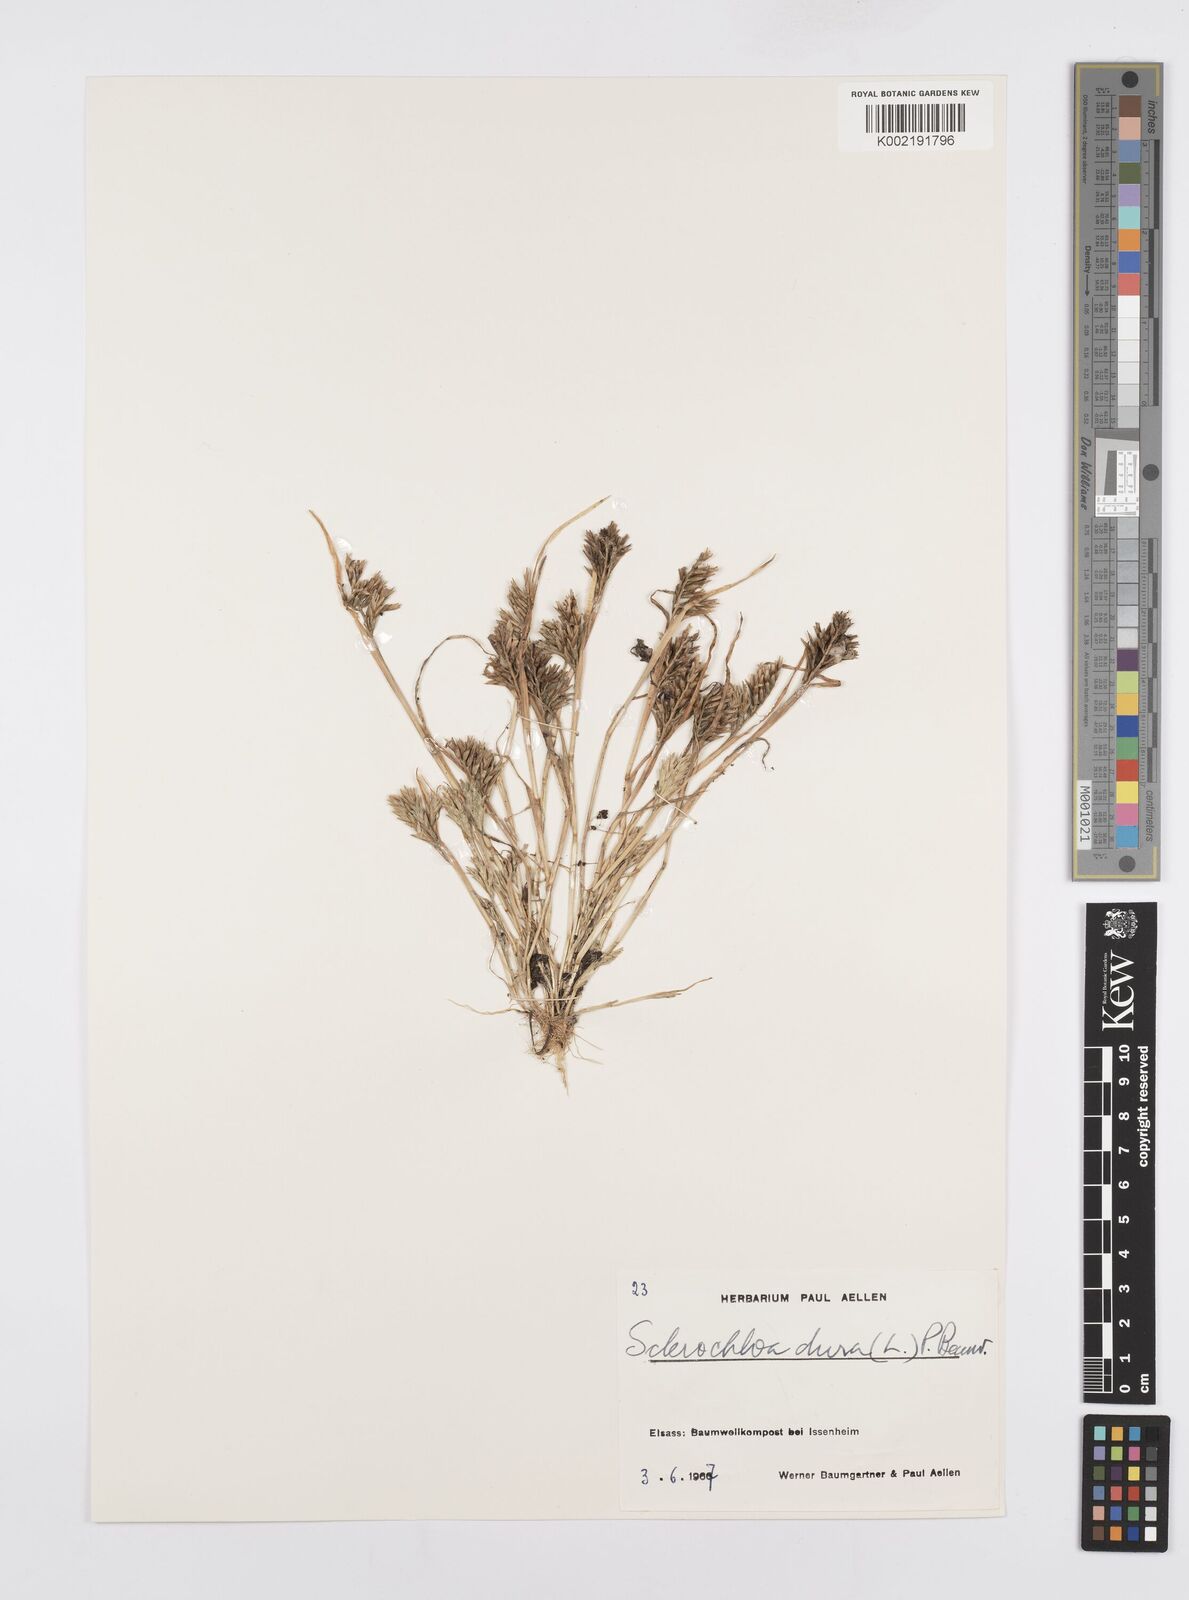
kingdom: Plantae
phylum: Tracheophyta
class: Liliopsida
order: Poales
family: Poaceae
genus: Sclerochloa
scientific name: Sclerochloa dura
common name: Common hardgrass
